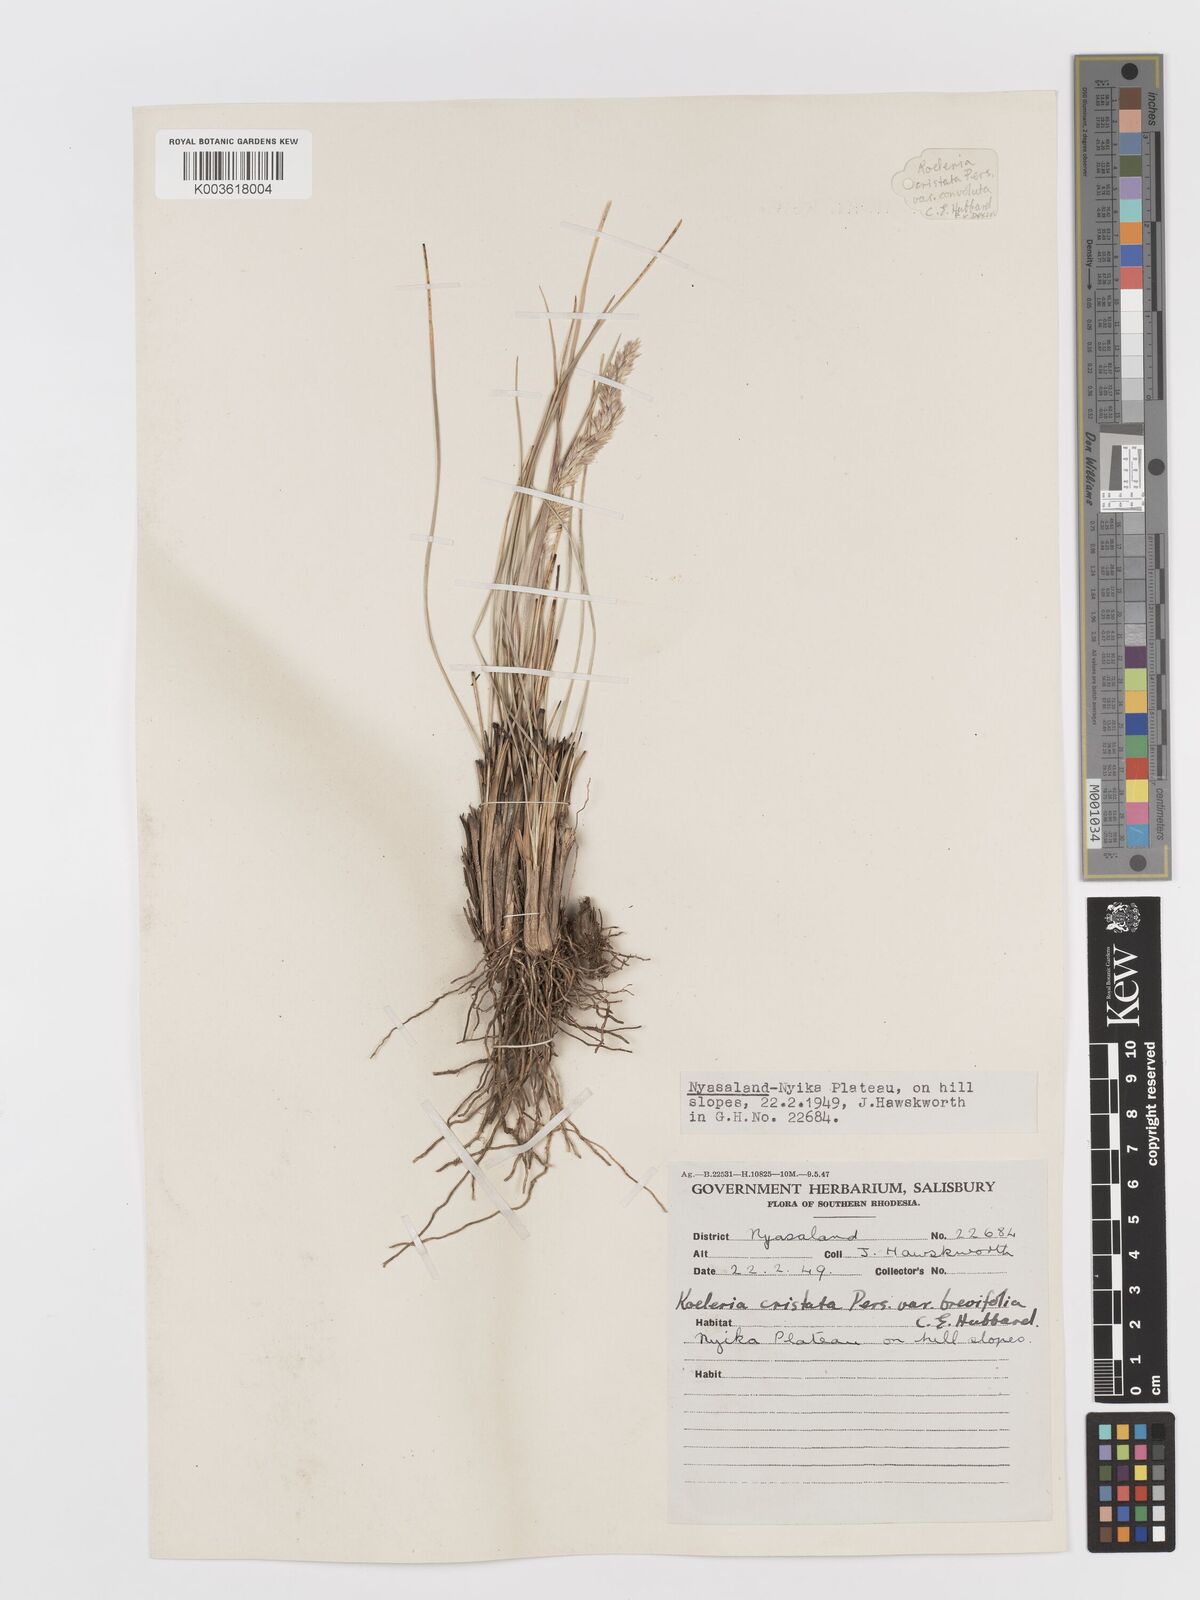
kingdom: Plantae
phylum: Tracheophyta
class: Liliopsida
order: Poales
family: Poaceae
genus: Koeleria
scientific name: Koeleria capensis
